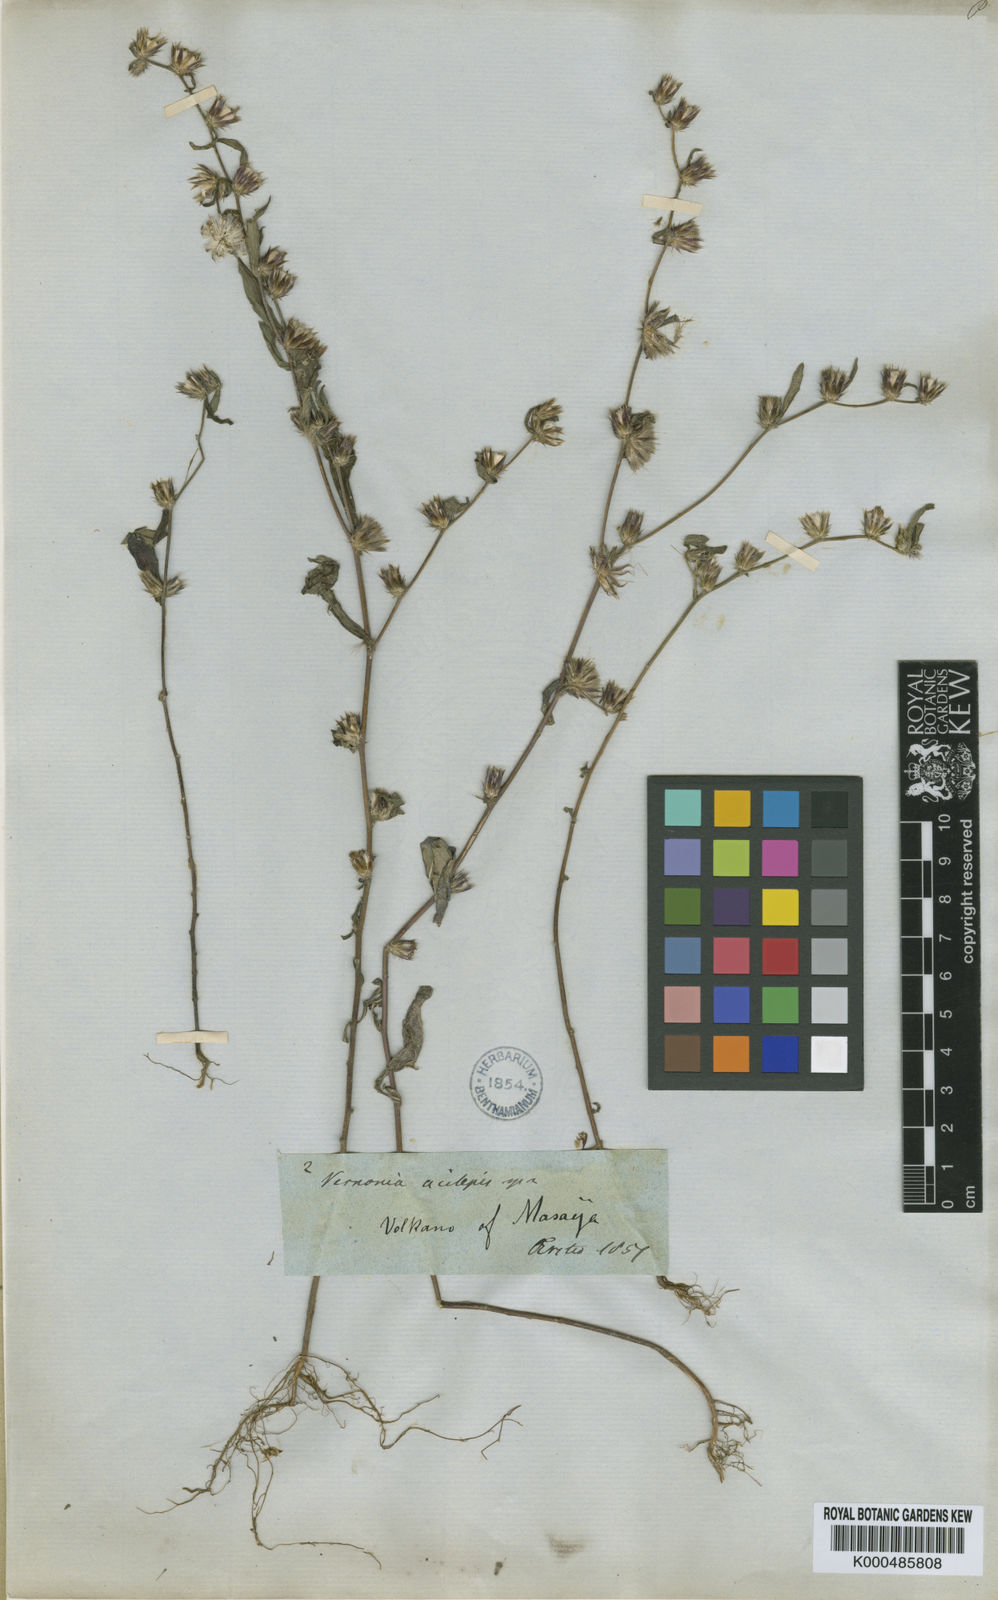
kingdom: Plantae
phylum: Tracheophyta
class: Magnoliopsida
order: Asterales
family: Asteraceae
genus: Lepidaploa
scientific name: Lepidaploa acilepis
